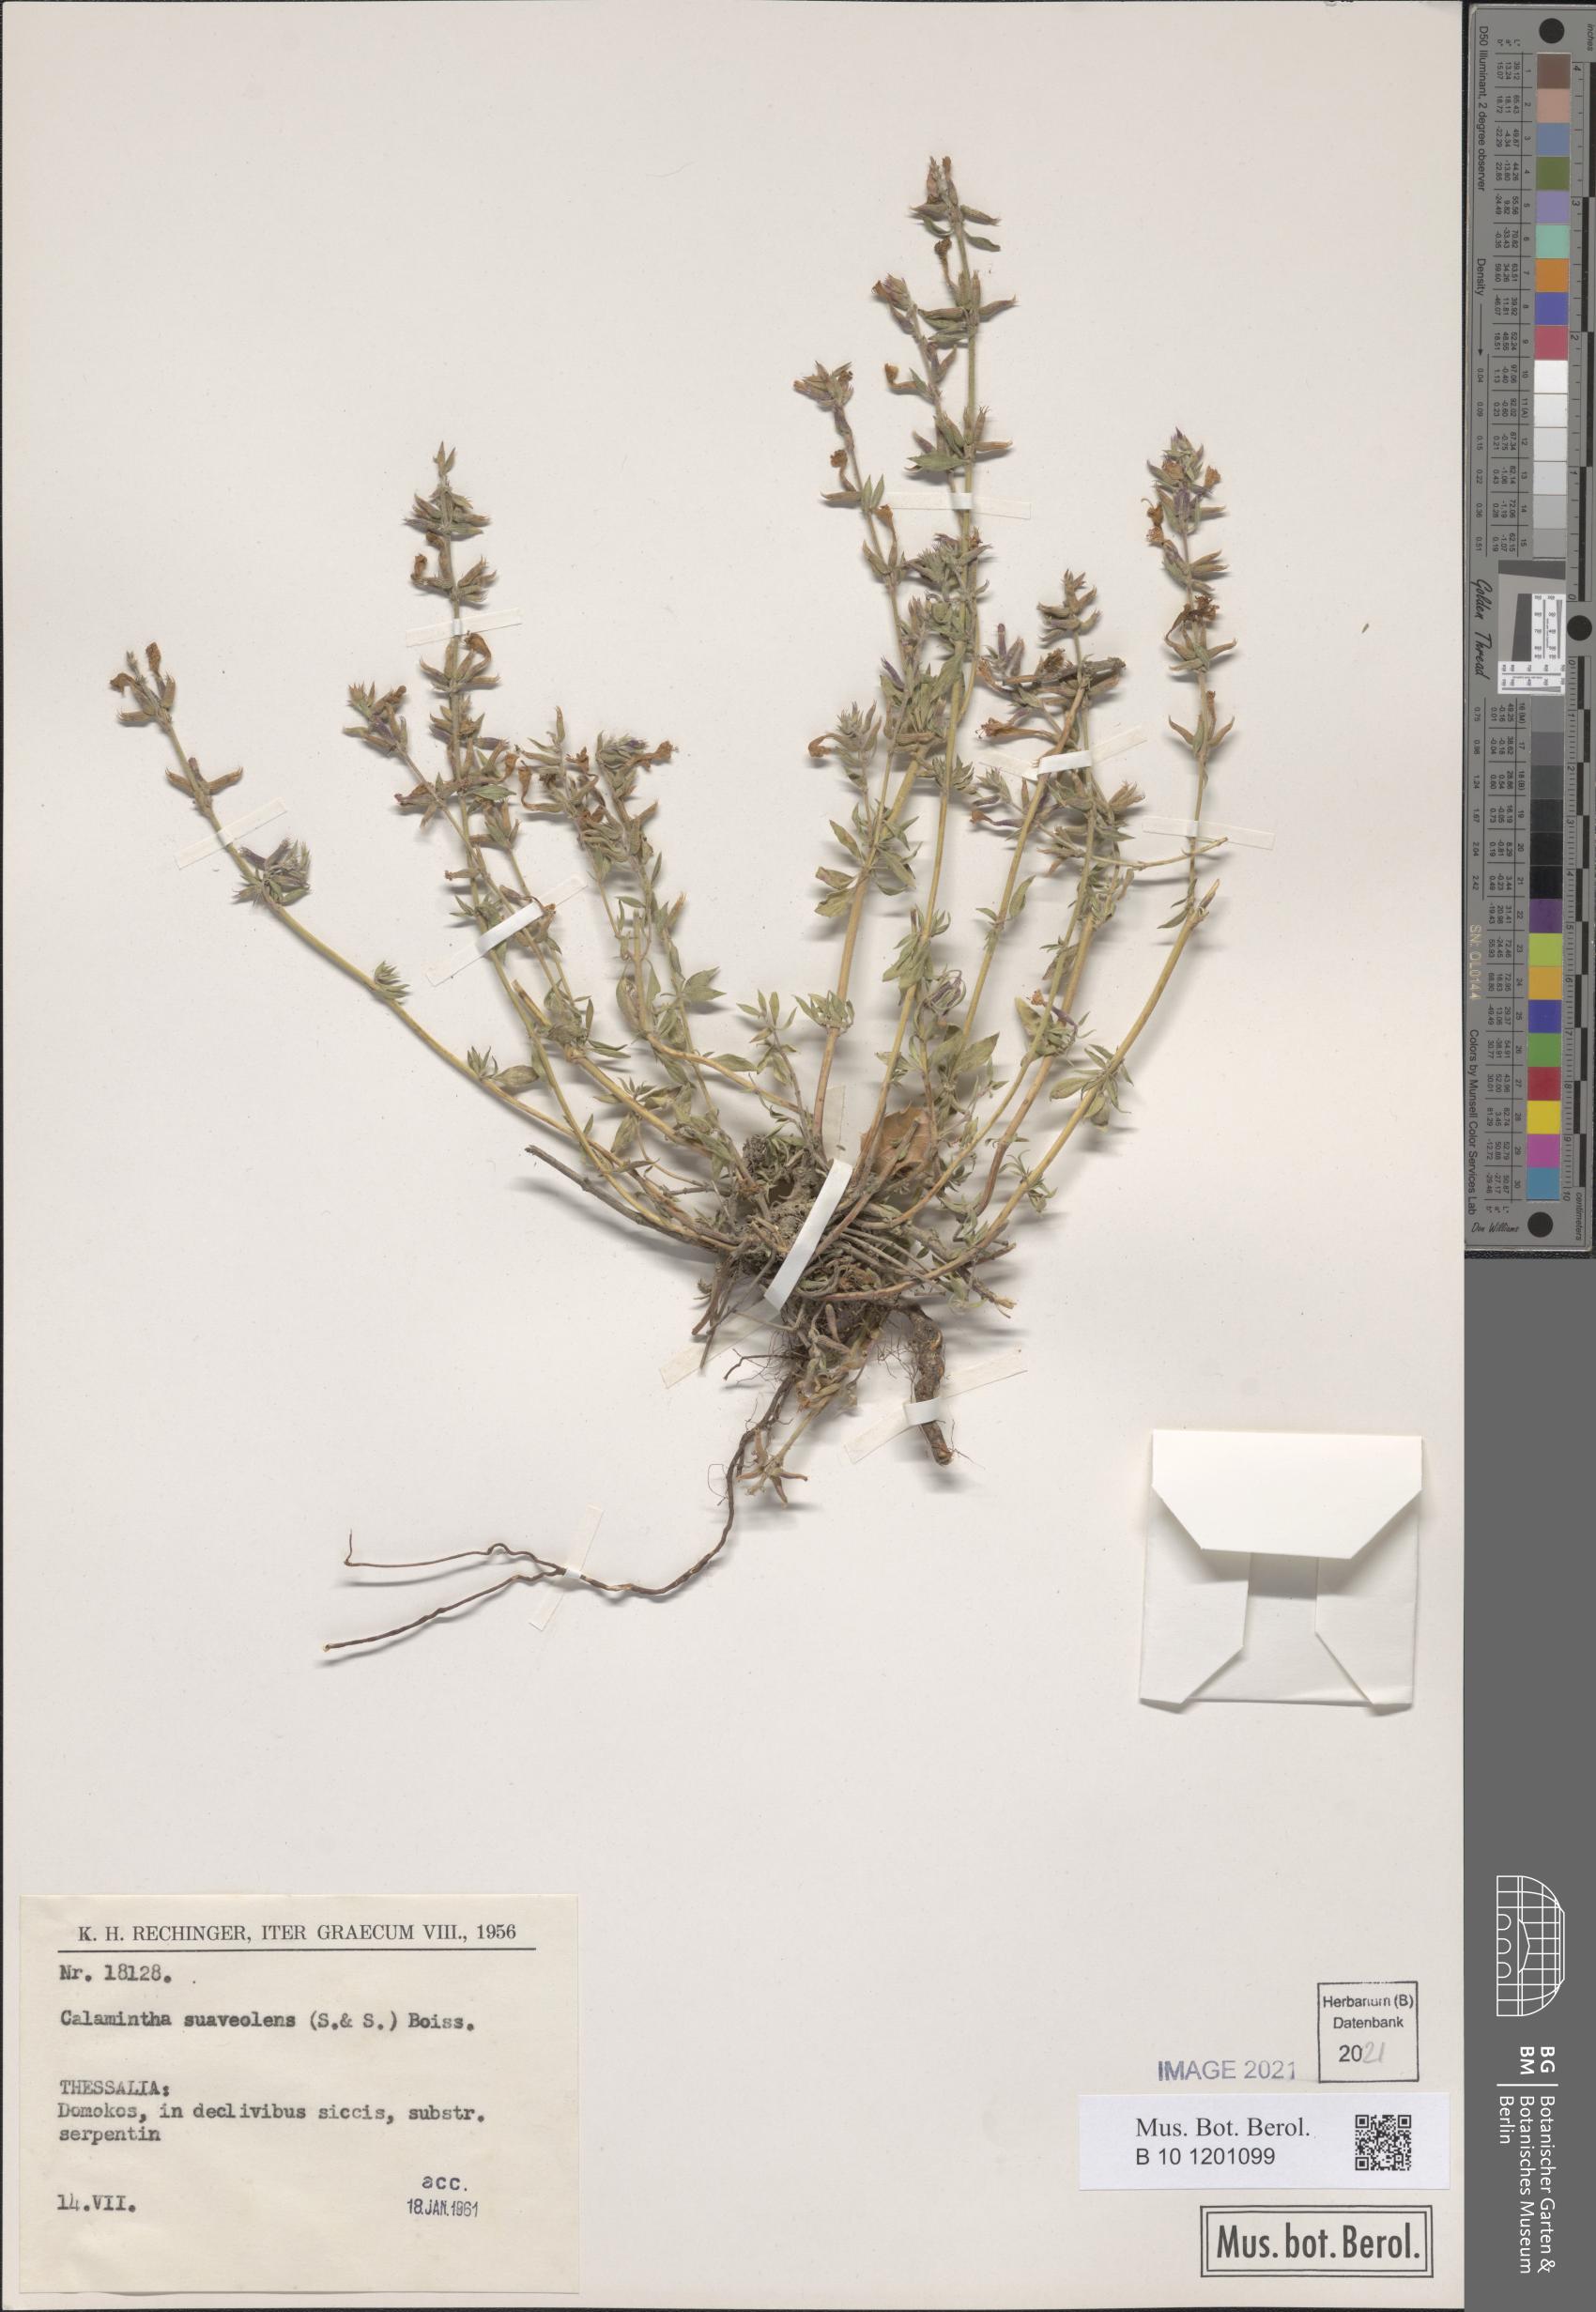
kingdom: Plantae
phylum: Tracheophyta
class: Magnoliopsida
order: Lamiales
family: Lamiaceae
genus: Clinopodium
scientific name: Clinopodium suaveolens
